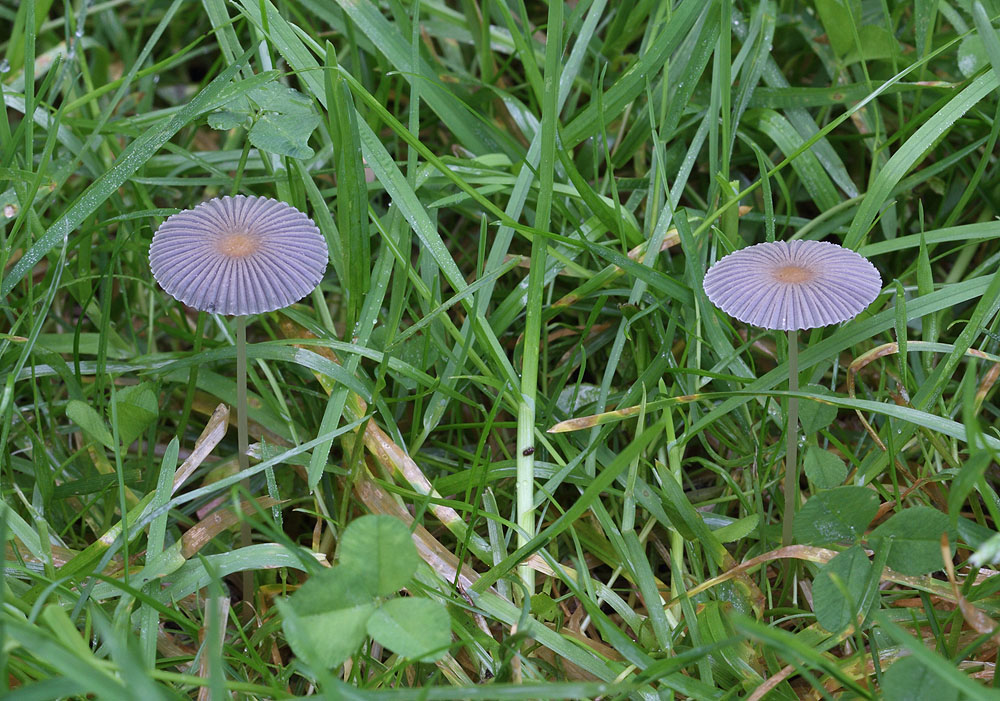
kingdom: Fungi
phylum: Basidiomycota
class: Agaricomycetes
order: Agaricales
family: Psathyrellaceae
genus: Parasola
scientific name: Parasola lactea
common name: glat hjulhat
